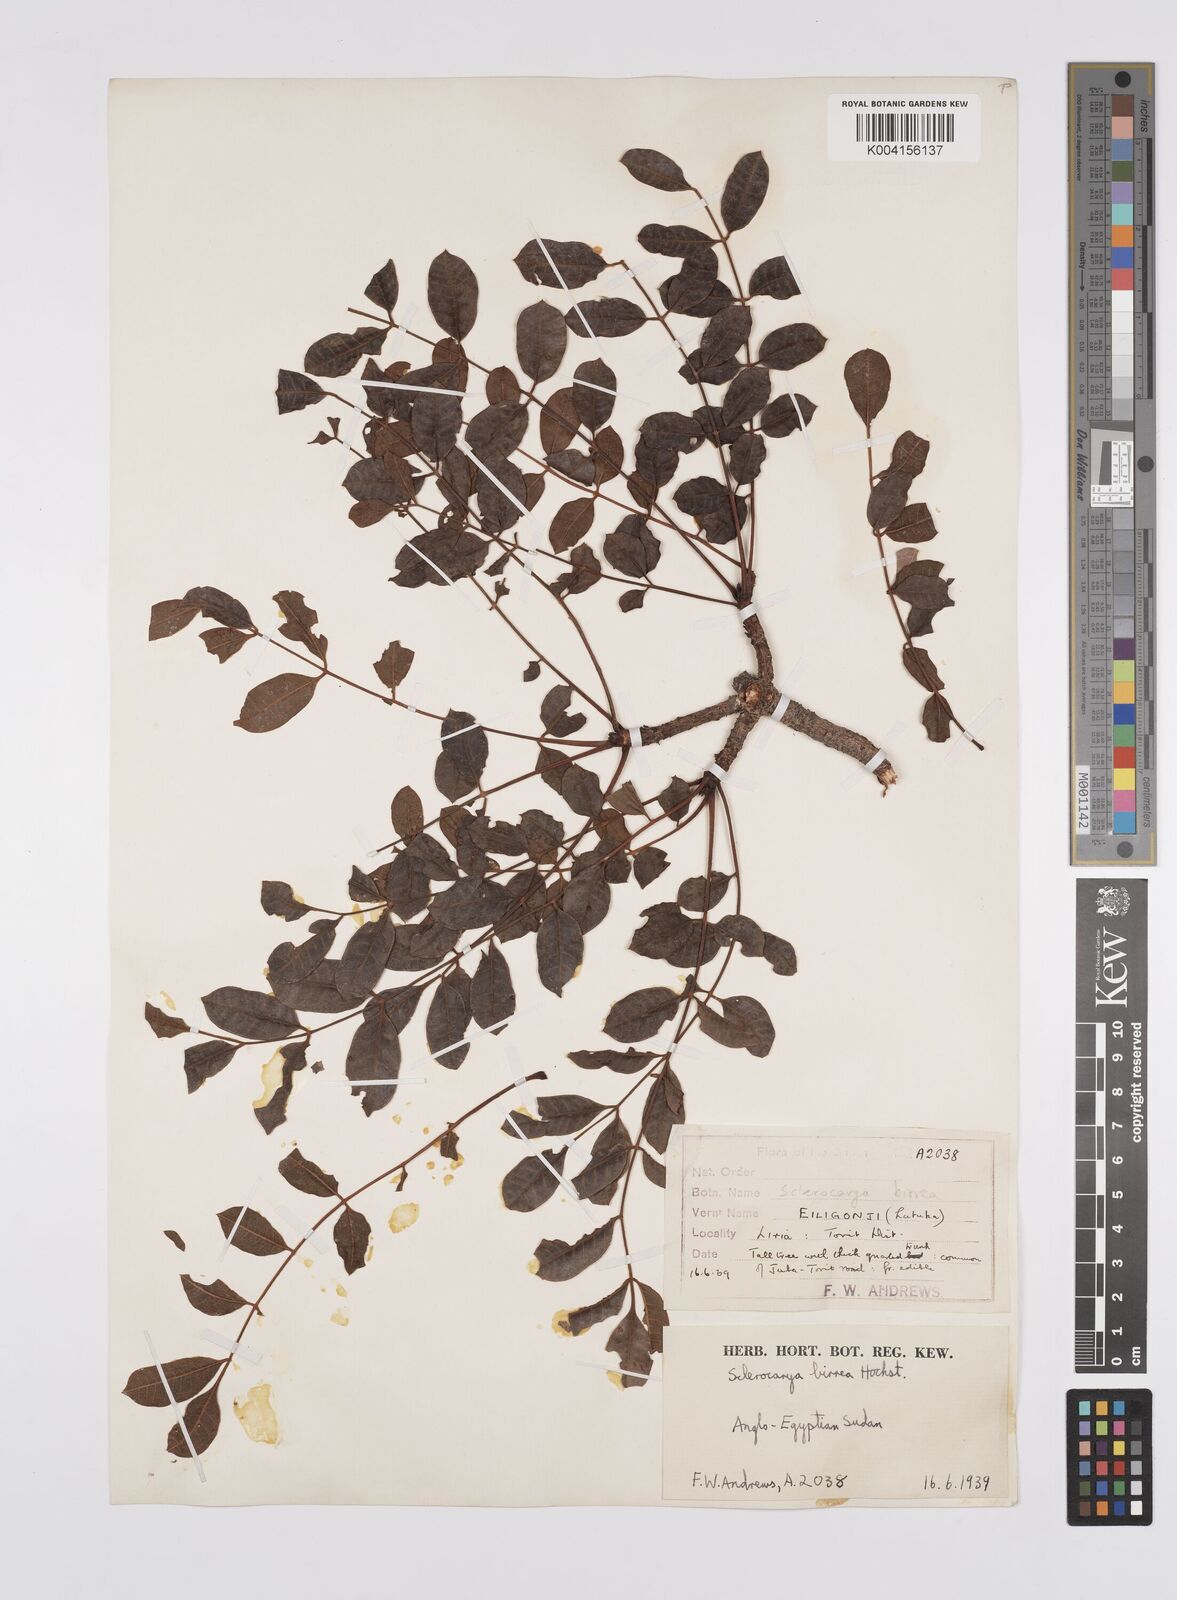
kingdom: Plantae
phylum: Tracheophyta
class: Magnoliopsida
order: Sapindales
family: Anacardiaceae
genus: Sclerocarya
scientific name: Sclerocarya birrea
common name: Marula
